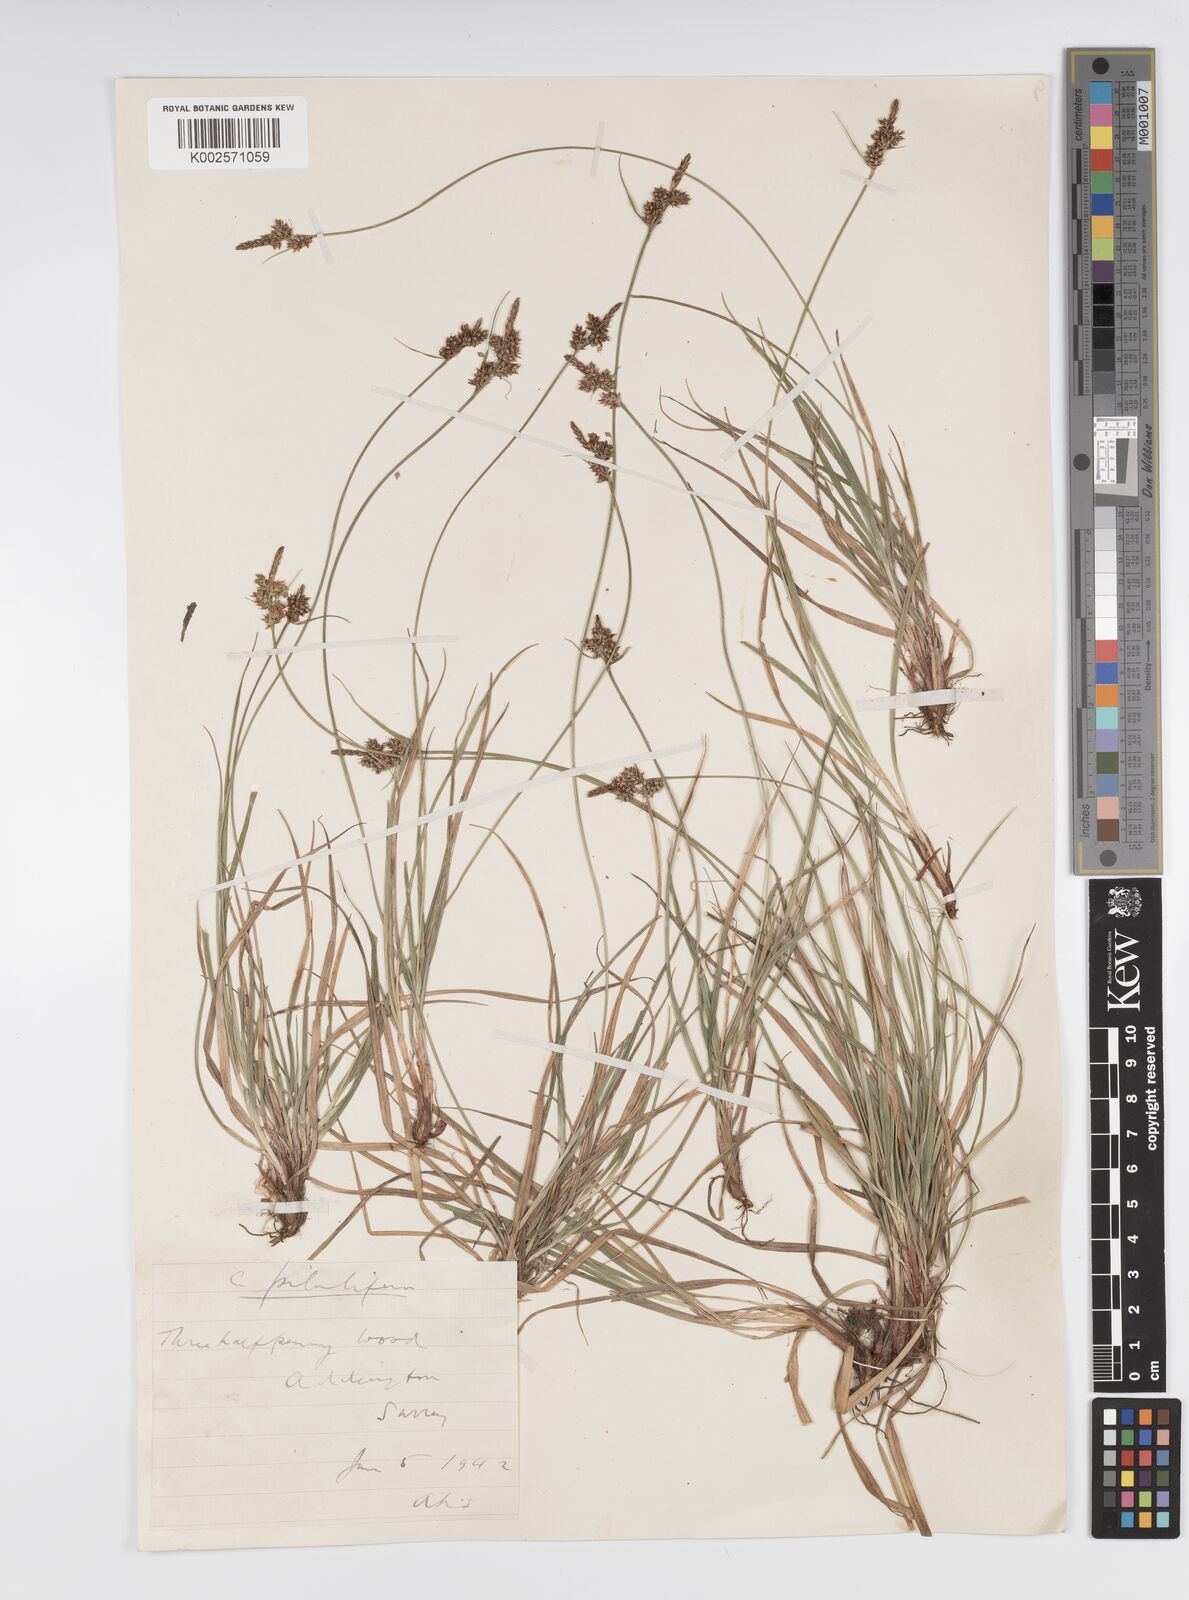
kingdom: Plantae
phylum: Tracheophyta
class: Liliopsida
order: Poales
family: Cyperaceae
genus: Carex
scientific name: Carex pilulifera
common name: Pill sedge
